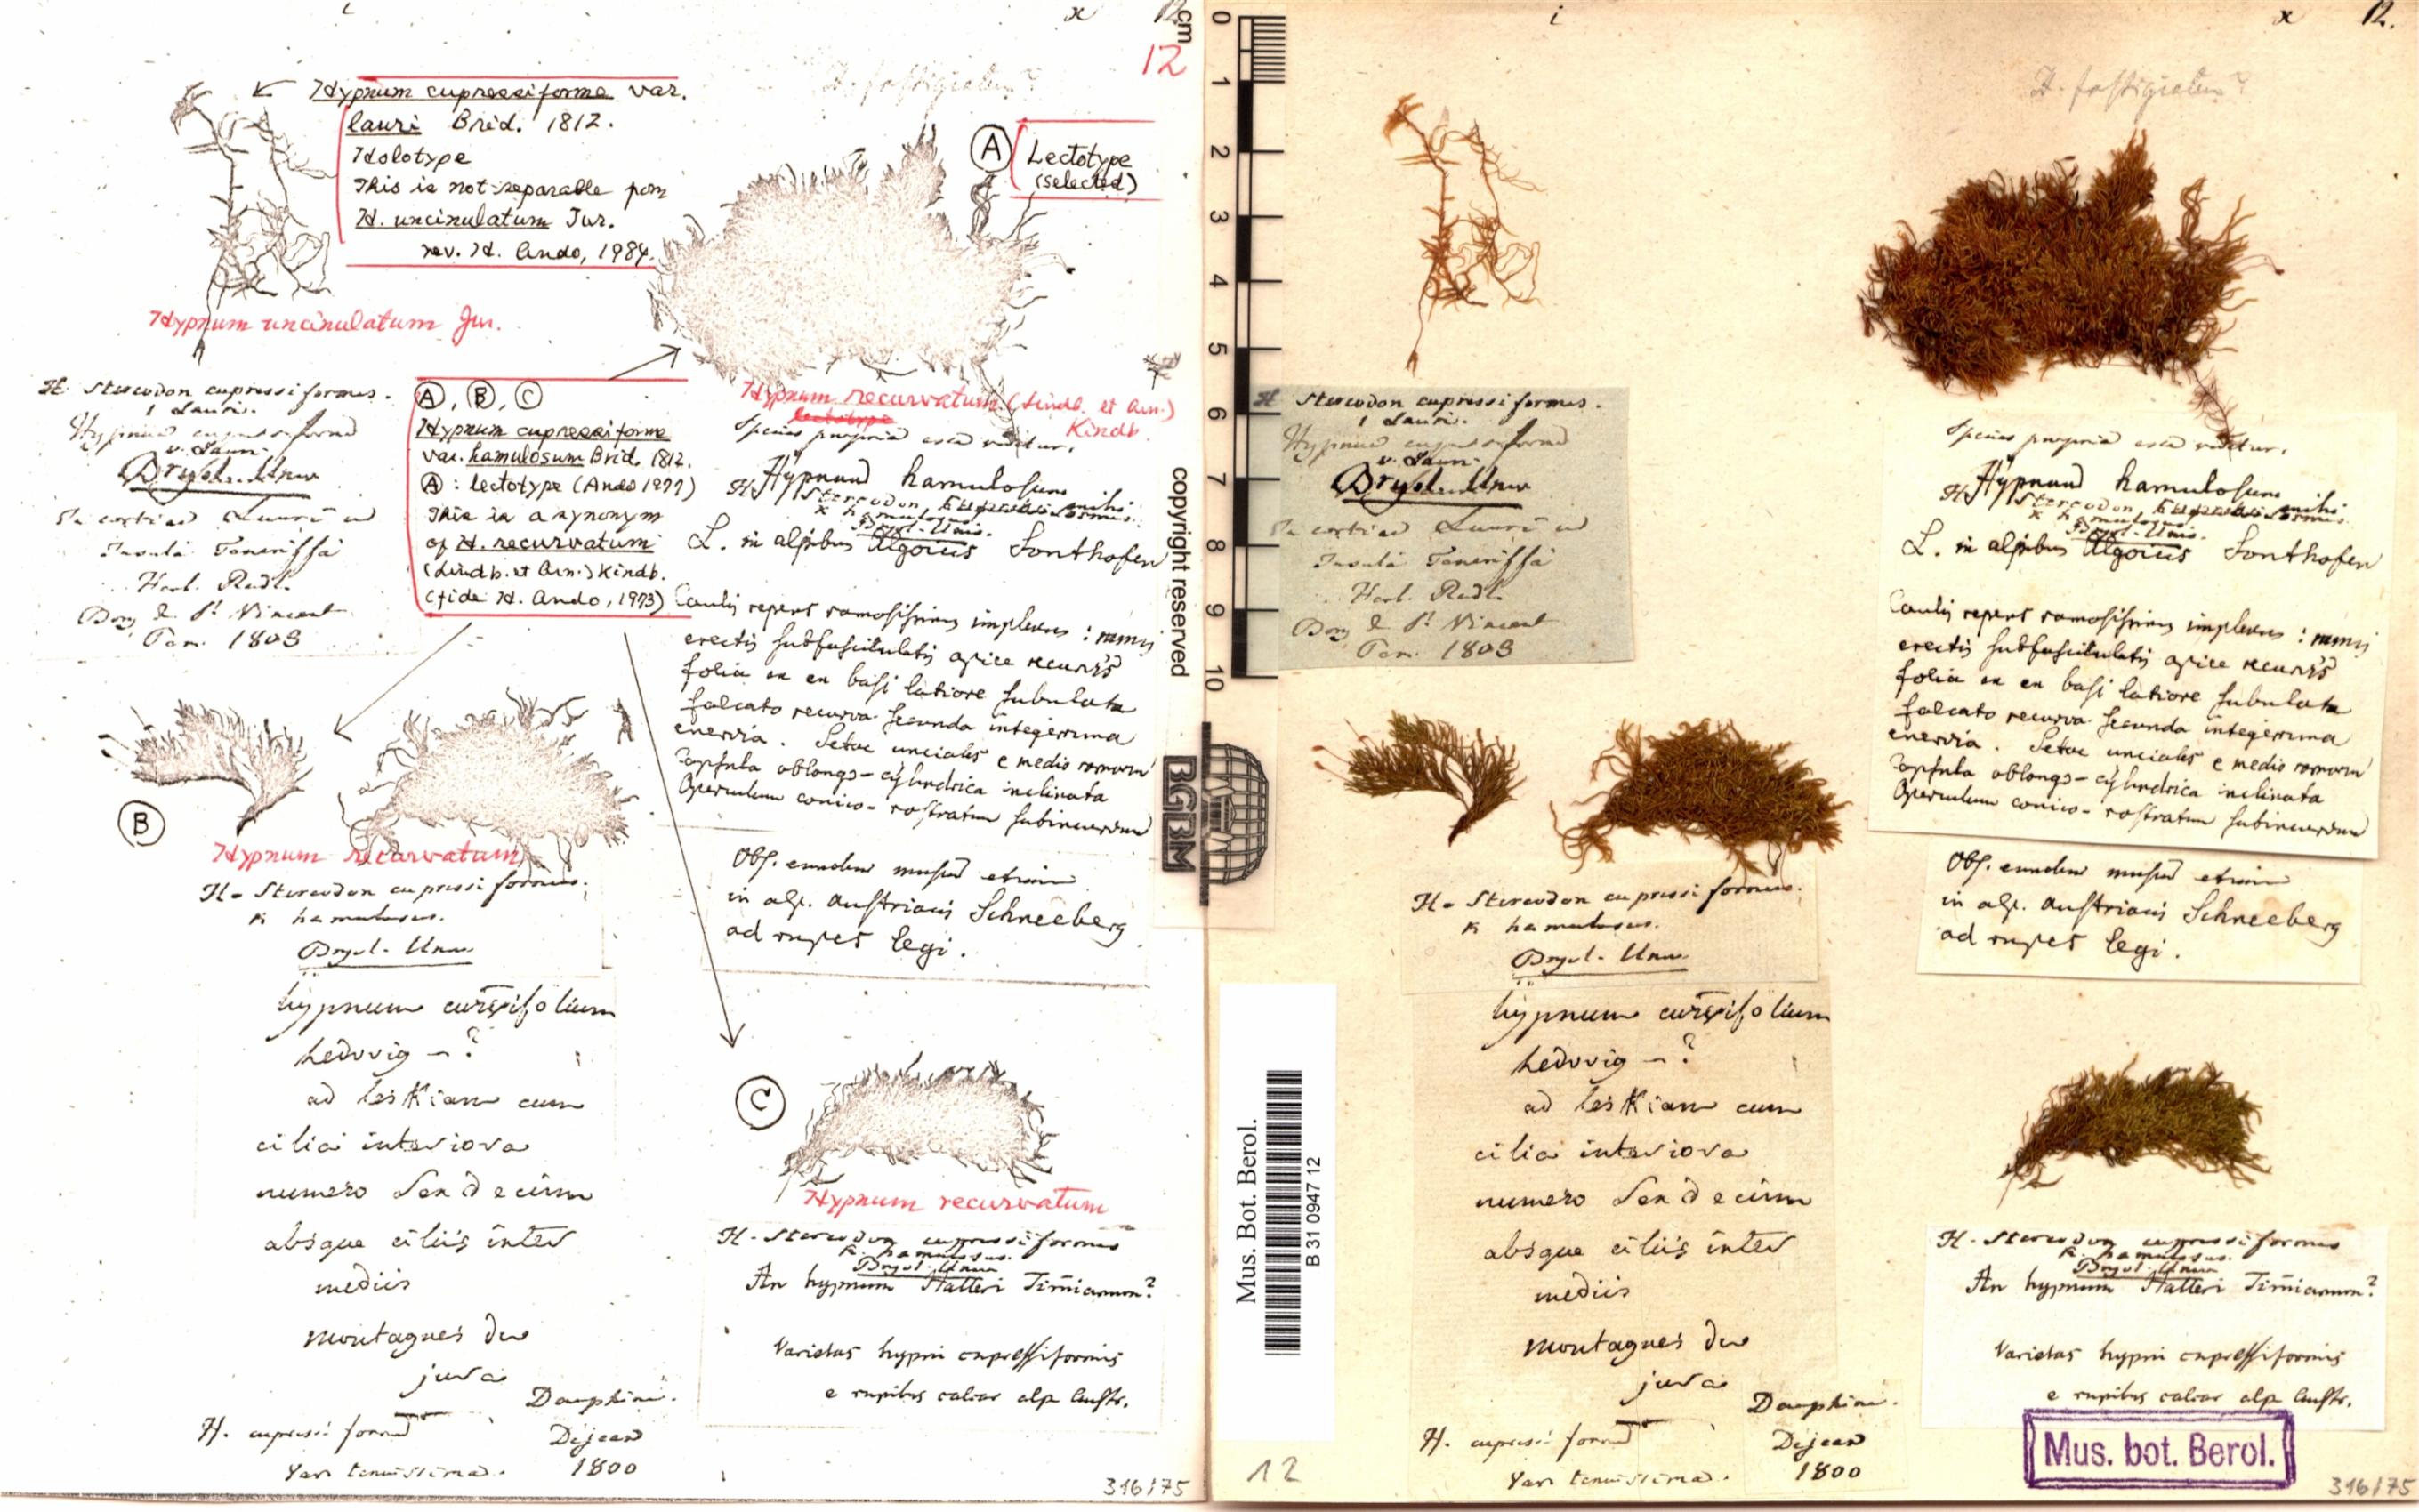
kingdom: Plantae
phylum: Bryophyta
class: Bryopsida
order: Hypnales
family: Hypnaceae
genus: Hypnum
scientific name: Hypnum uncinulatum
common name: Hooked plait-moss
